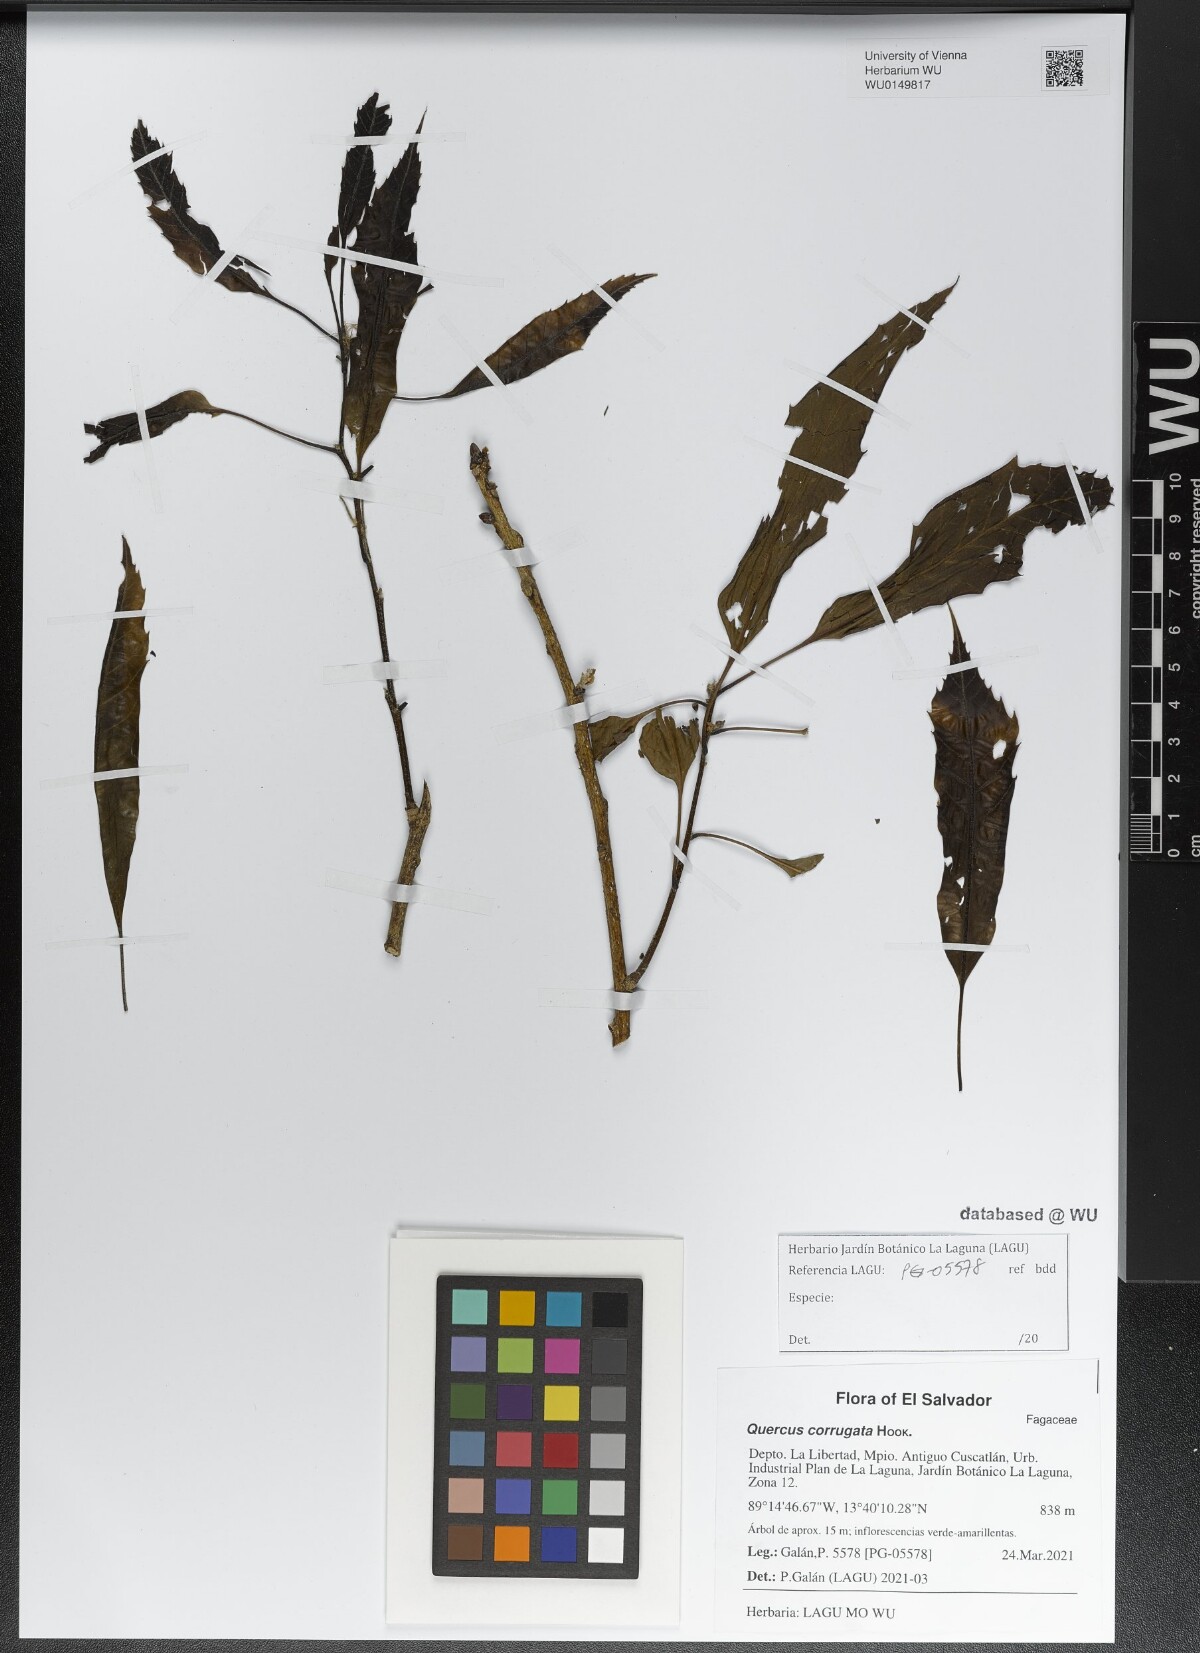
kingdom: Plantae
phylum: Tracheophyta
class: Magnoliopsida
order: Fagales
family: Fagaceae
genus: Quercus
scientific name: Quercus corrugata
